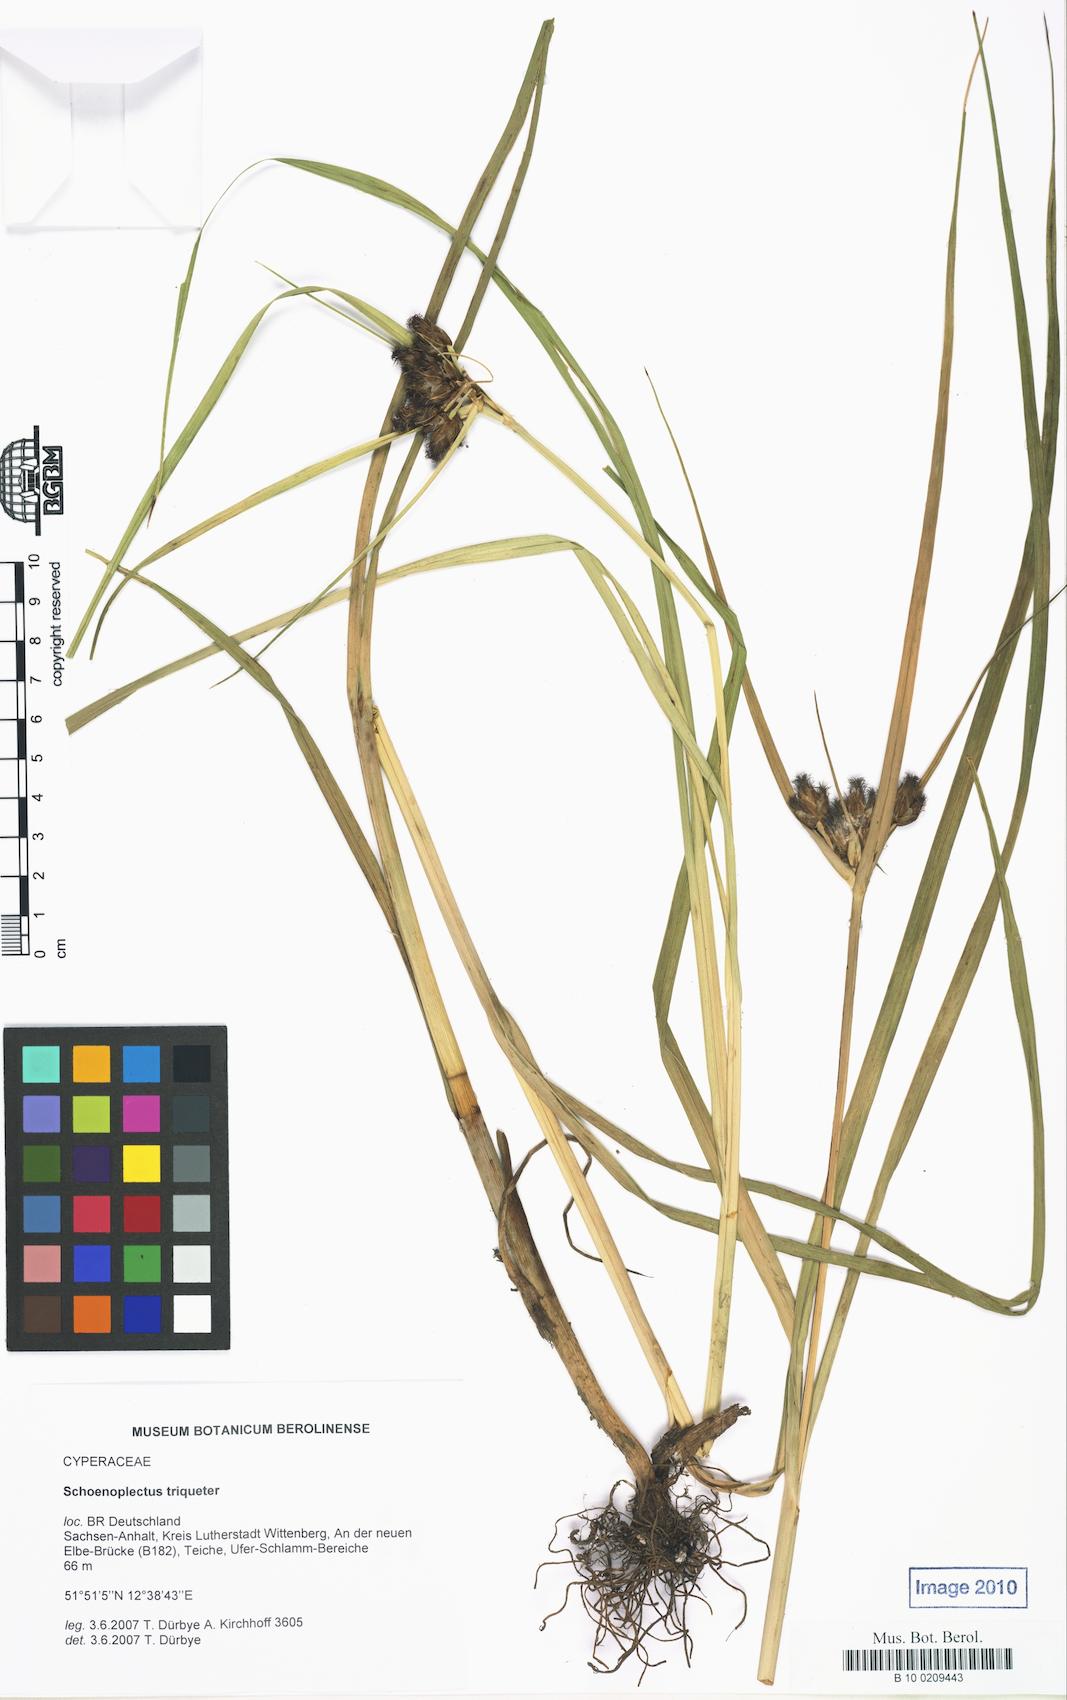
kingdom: Plantae
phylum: Tracheophyta
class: Liliopsida
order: Poales
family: Cyperaceae
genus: Bolboschoenus
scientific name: Bolboschoenus maritimus
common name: Sea club-rush
